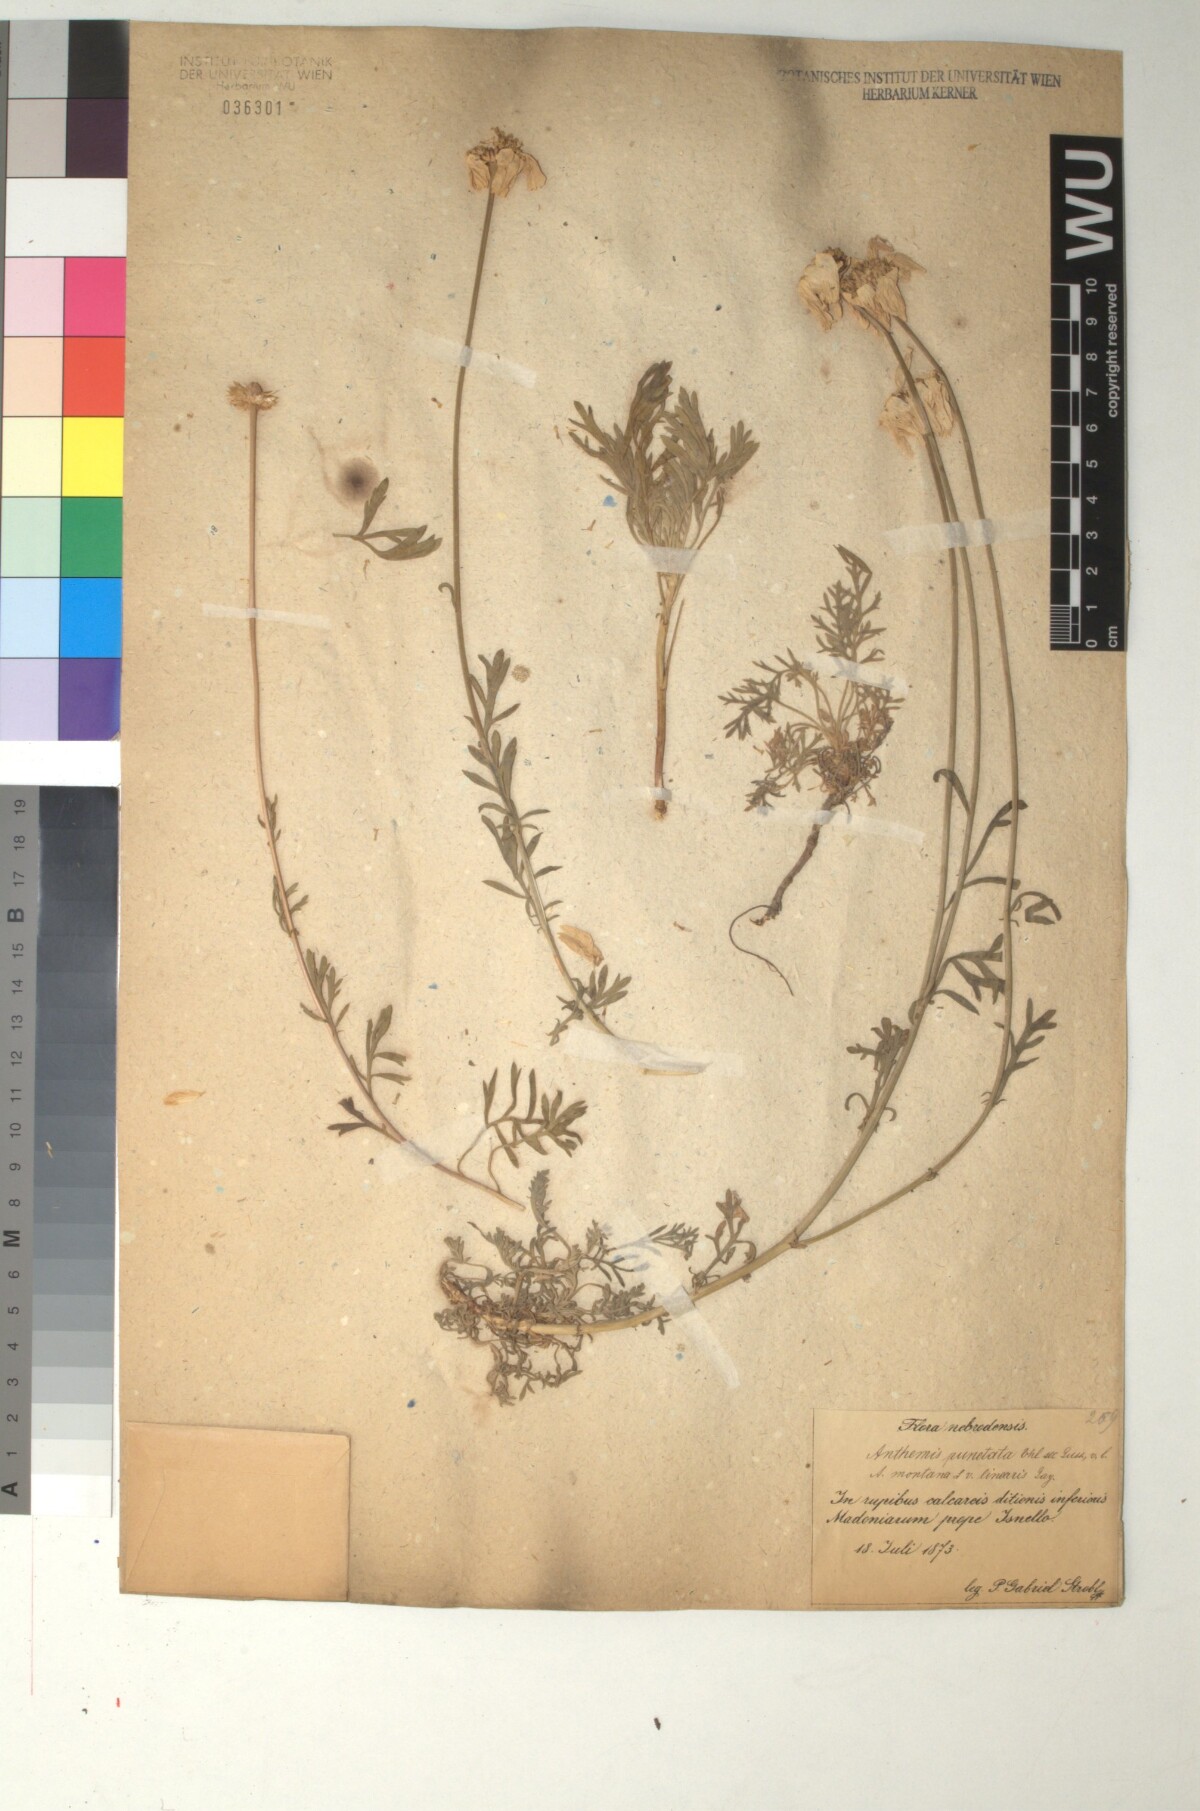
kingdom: Plantae
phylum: Tracheophyta
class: Magnoliopsida
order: Asterales
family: Asteraceae
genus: Anthemis
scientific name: Anthemis cretica
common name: Mountain dog-daisy
